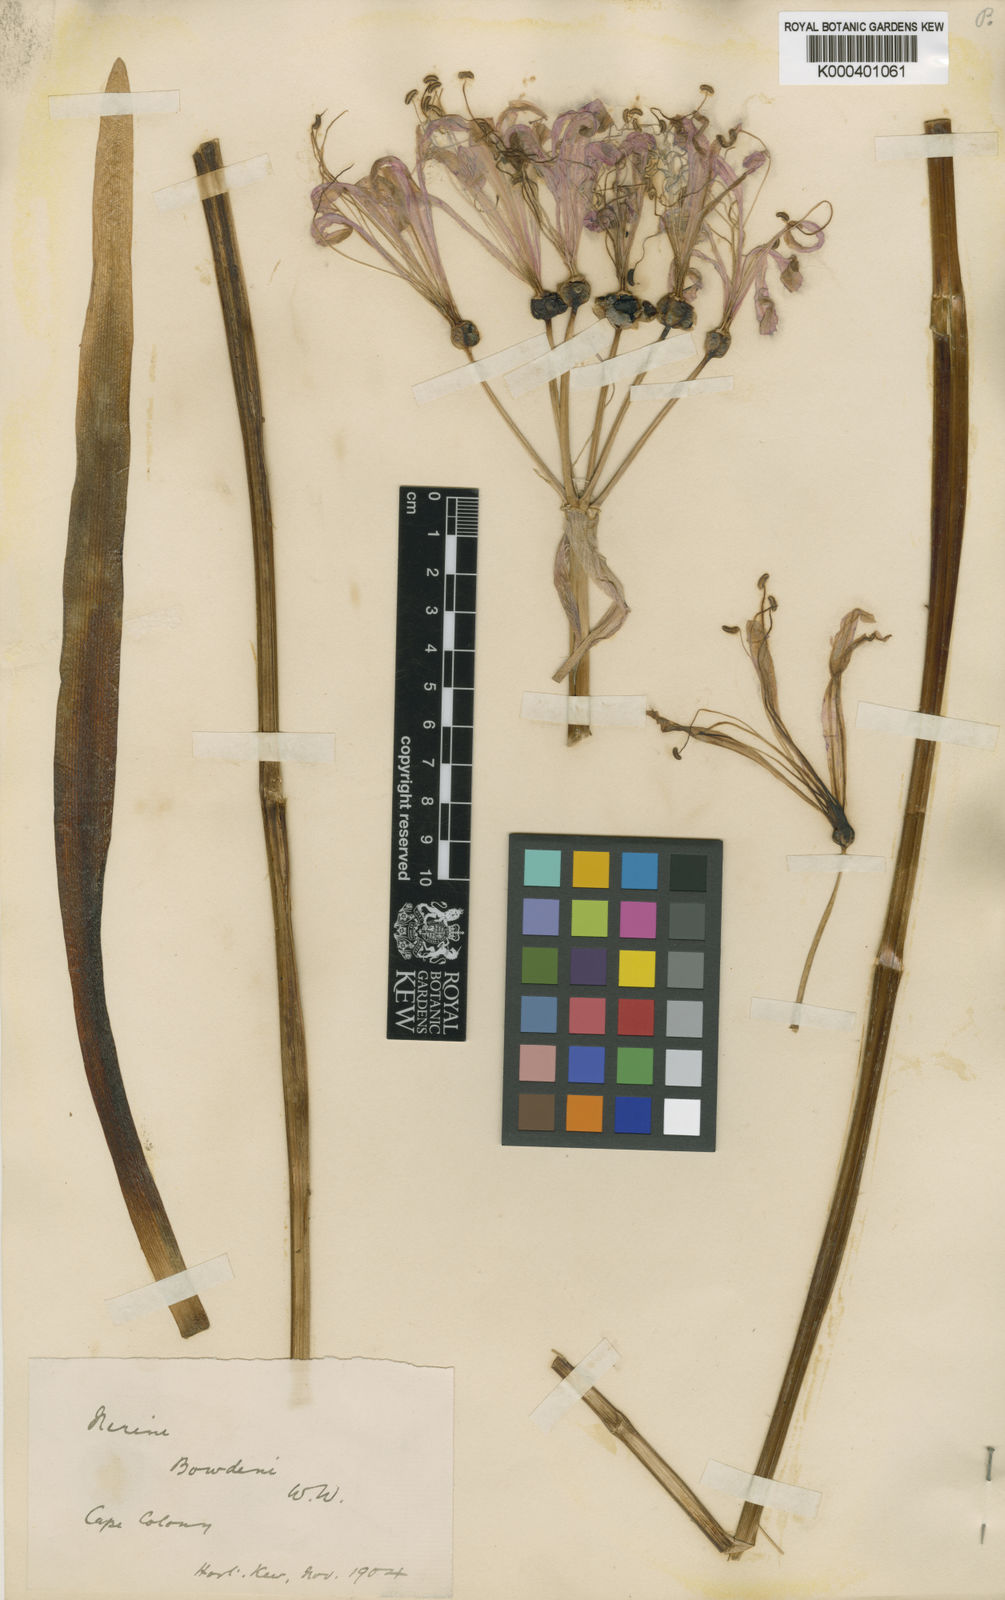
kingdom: Plantae
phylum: Tracheophyta
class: Liliopsida
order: Asparagales
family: Amaryllidaceae
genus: Nerine
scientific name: Nerine bowdenii
